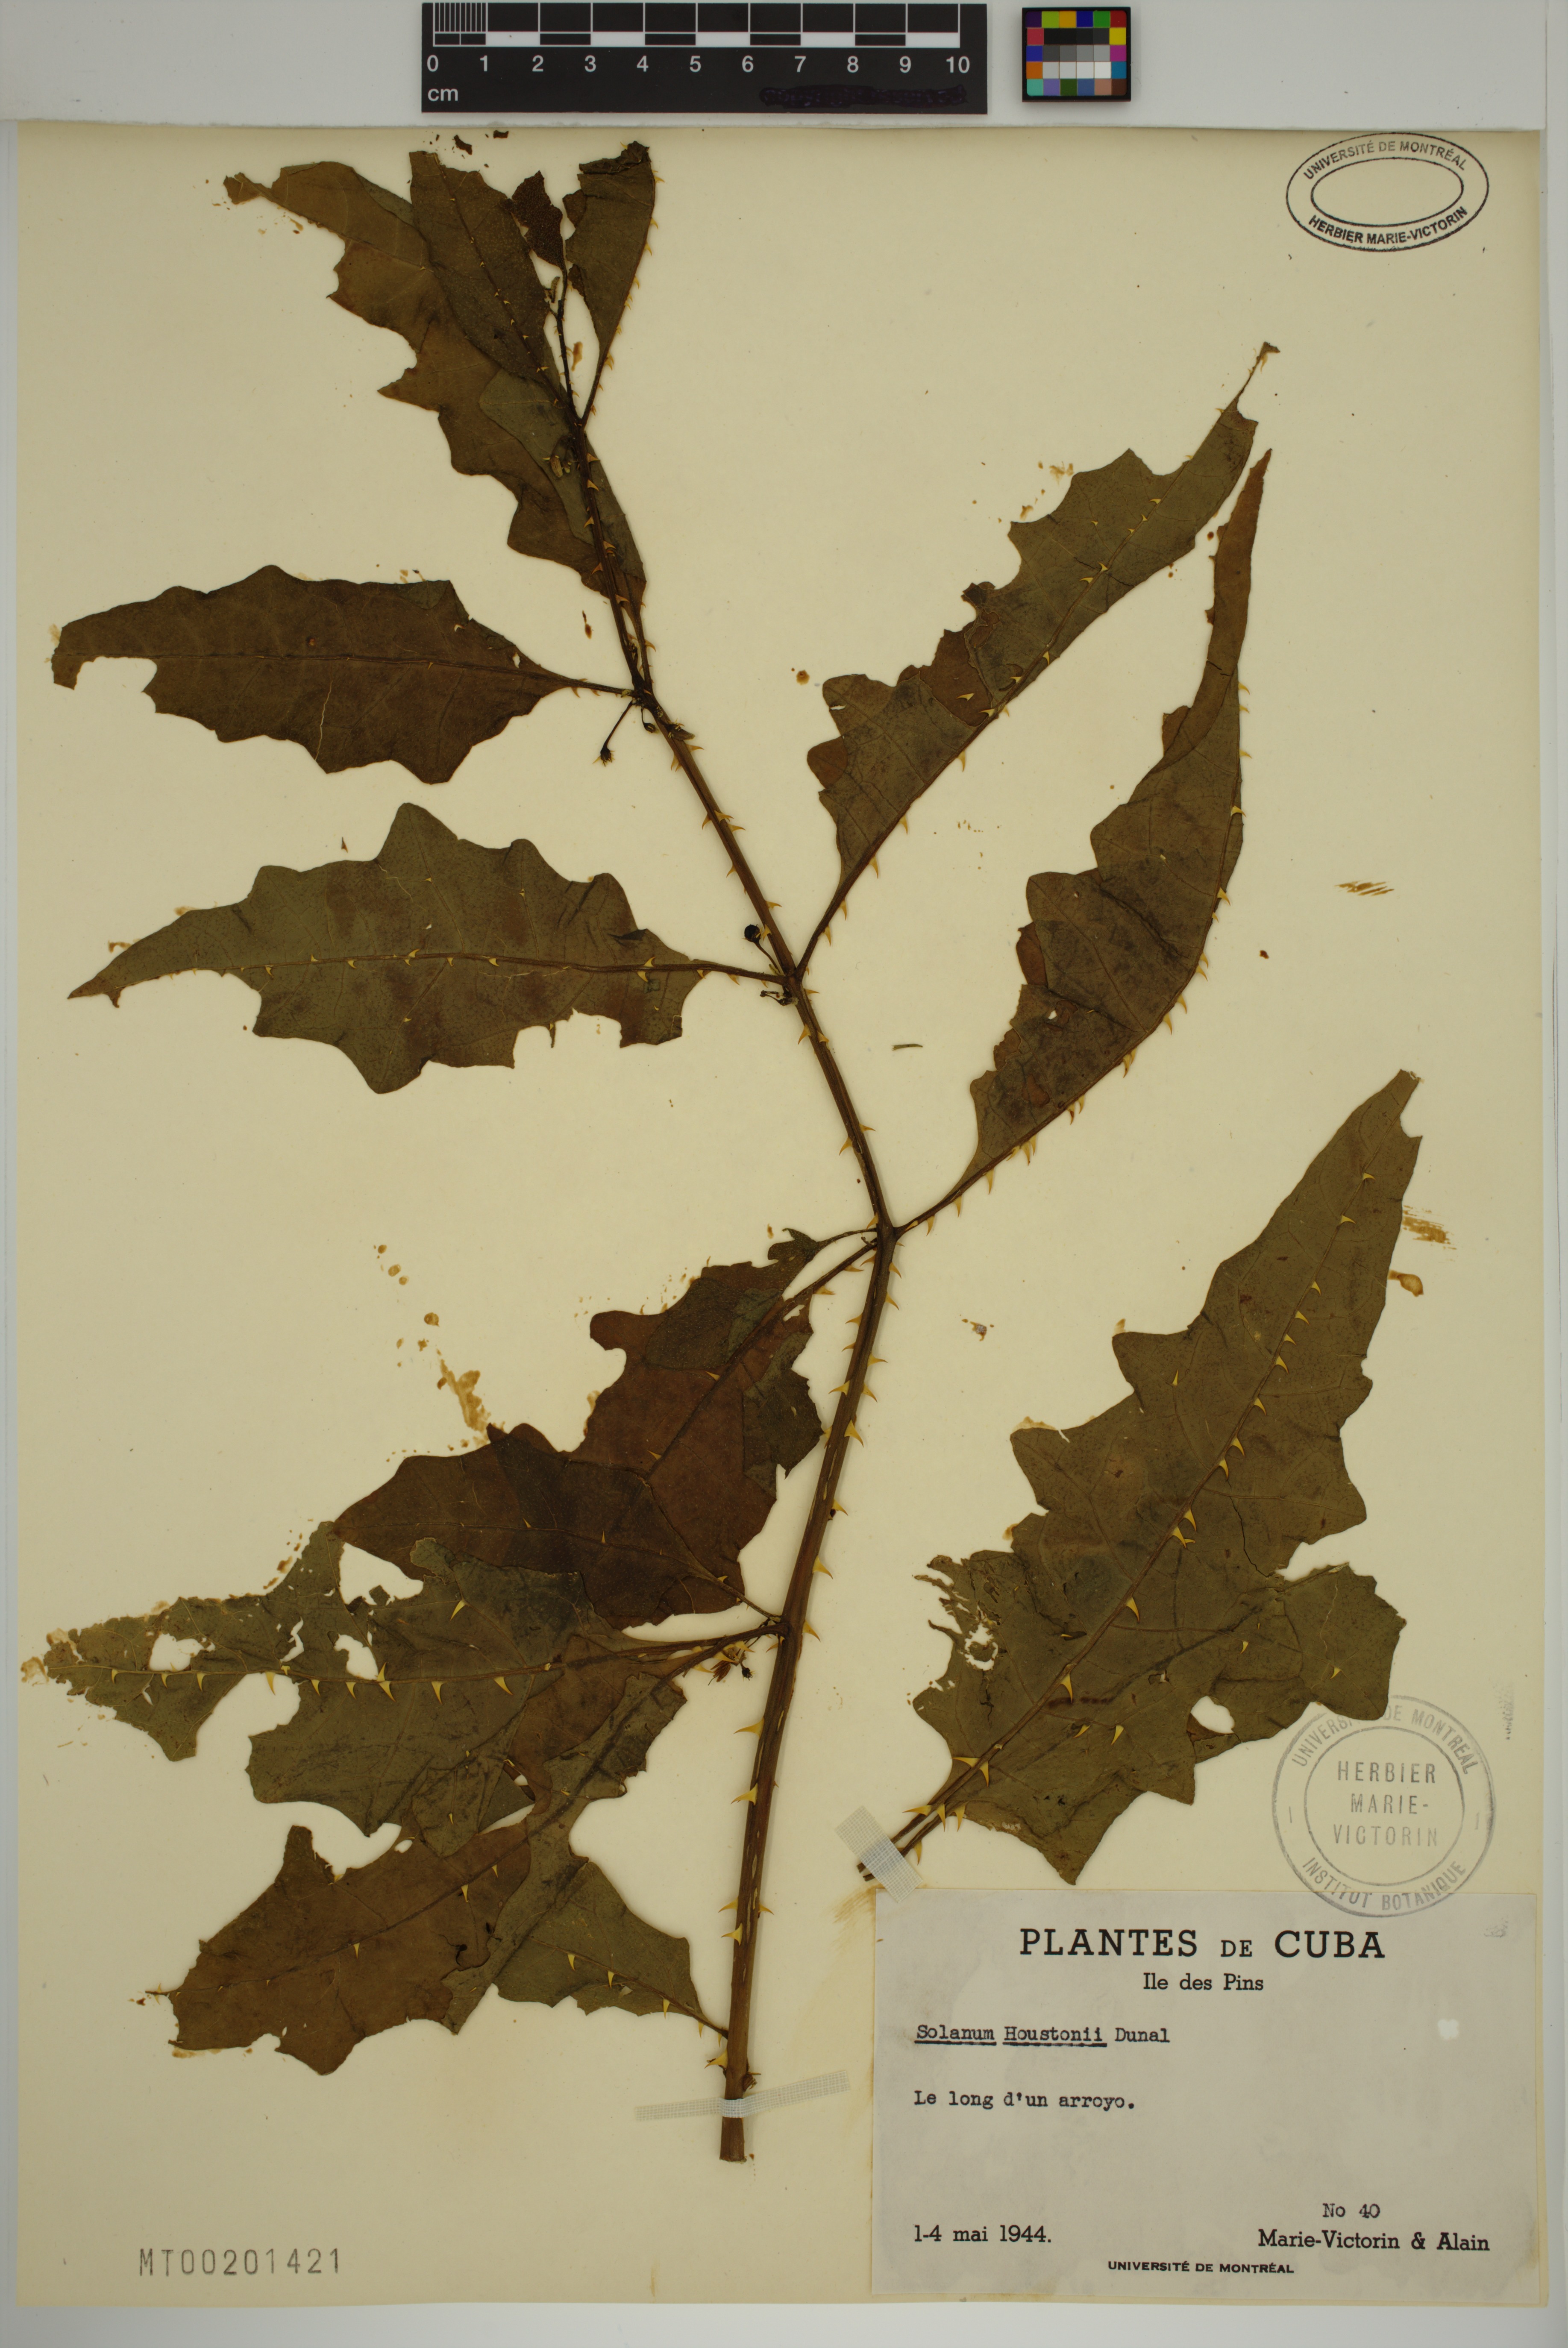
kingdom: Plantae
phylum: Tracheophyta
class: Magnoliopsida
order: Solanales
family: Solanaceae
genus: Solanum
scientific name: Solanum tampicense
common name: Scrambling nightshade
